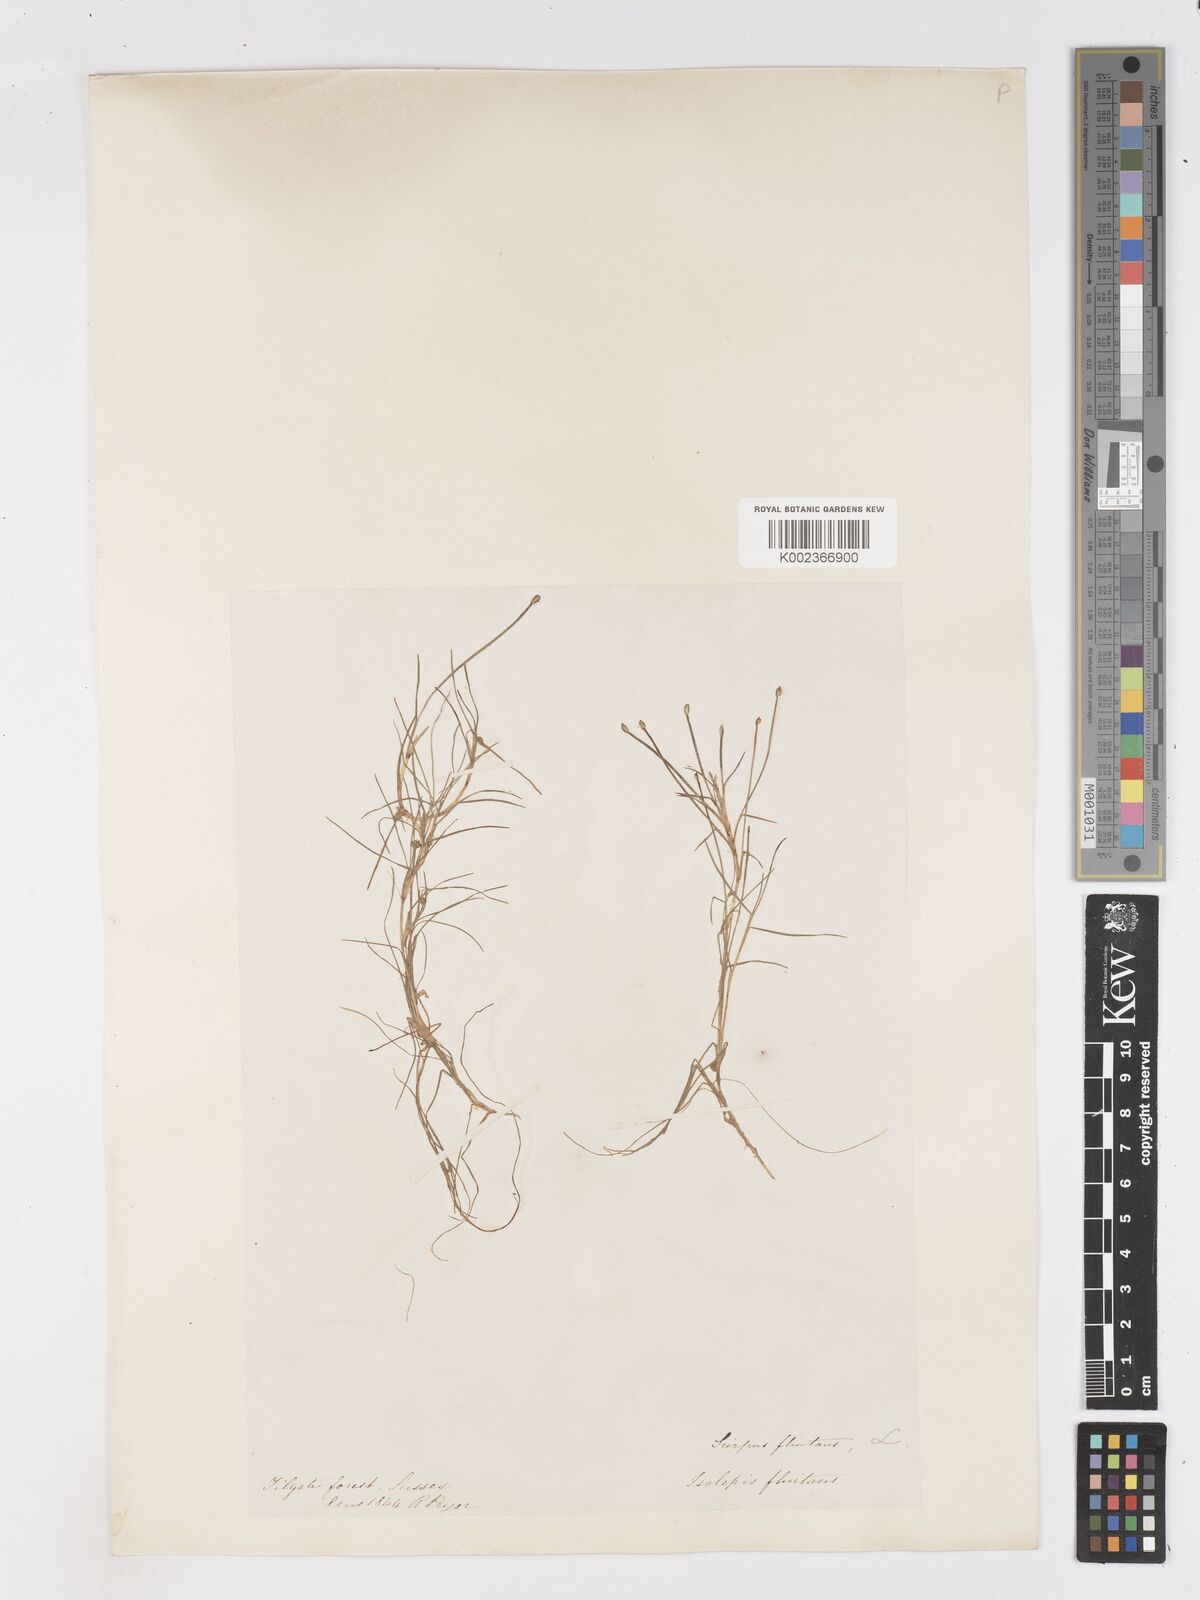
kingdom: Plantae
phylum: Tracheophyta
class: Liliopsida
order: Poales
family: Cyperaceae
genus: Isolepis
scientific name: Isolepis fluitans
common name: Floating club-rush
